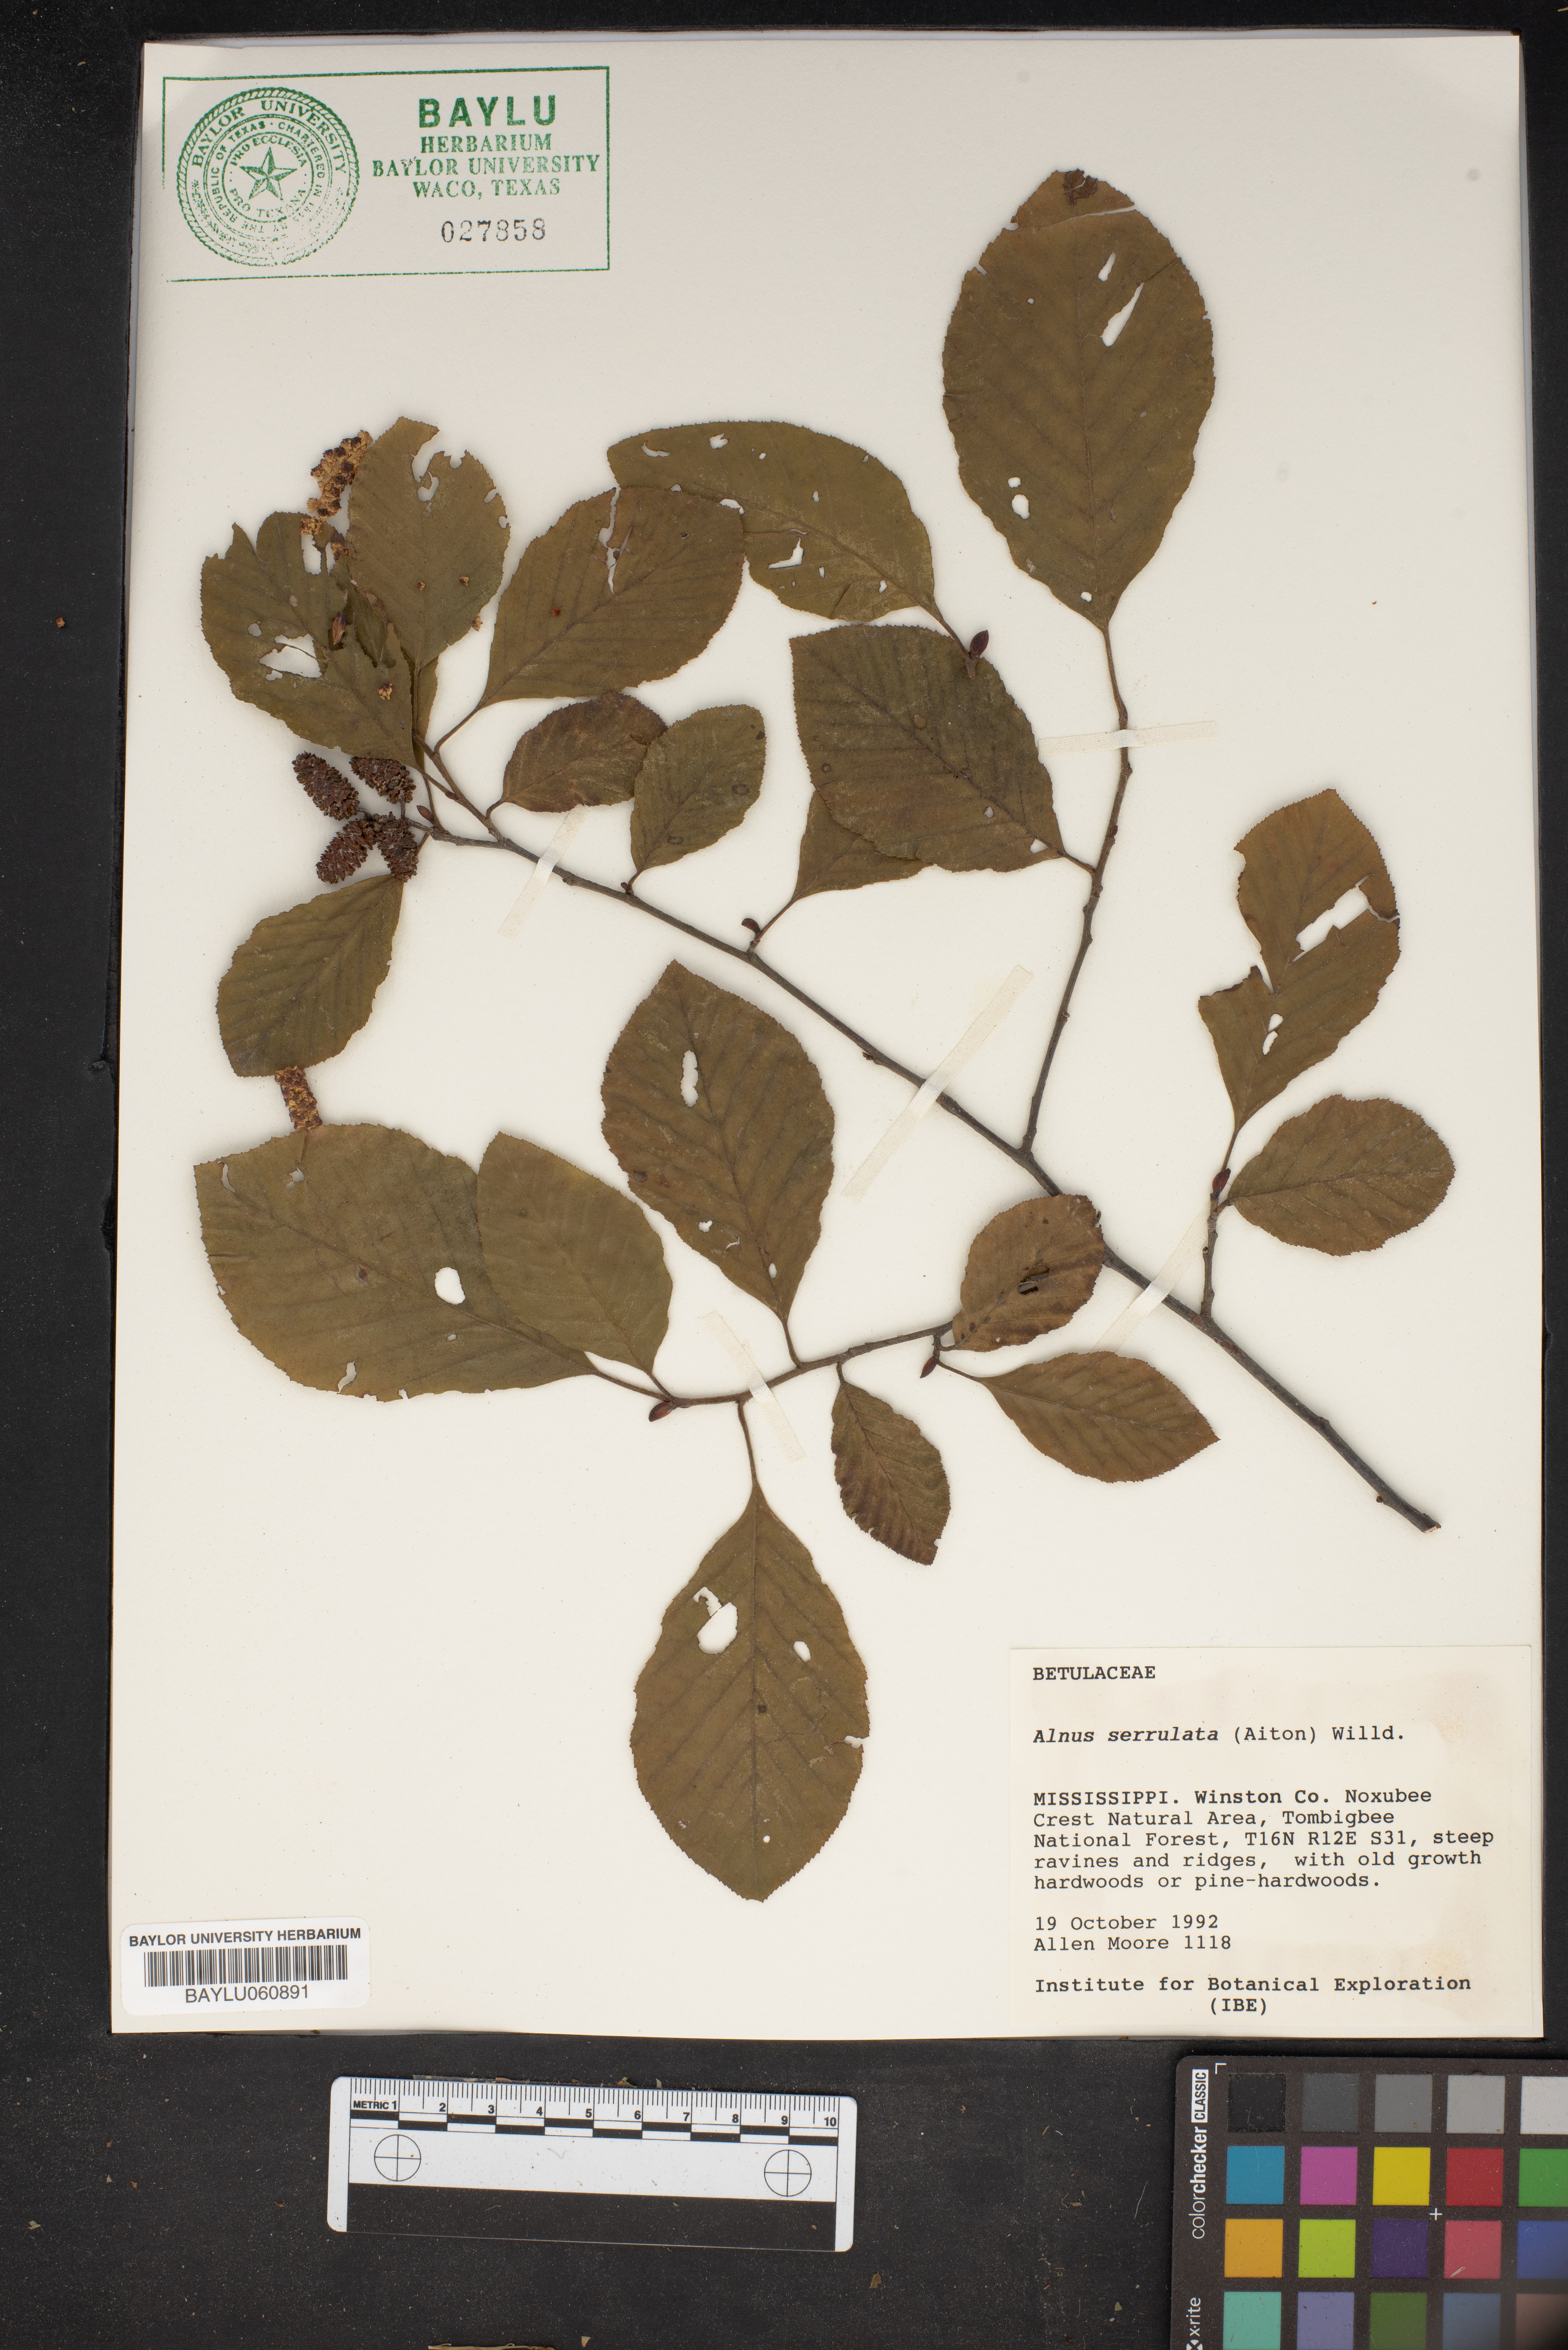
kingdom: Plantae
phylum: Tracheophyta
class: Magnoliopsida
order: Fagales
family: Betulaceae
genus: Alnus
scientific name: Alnus serrulata
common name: Hazel alder
